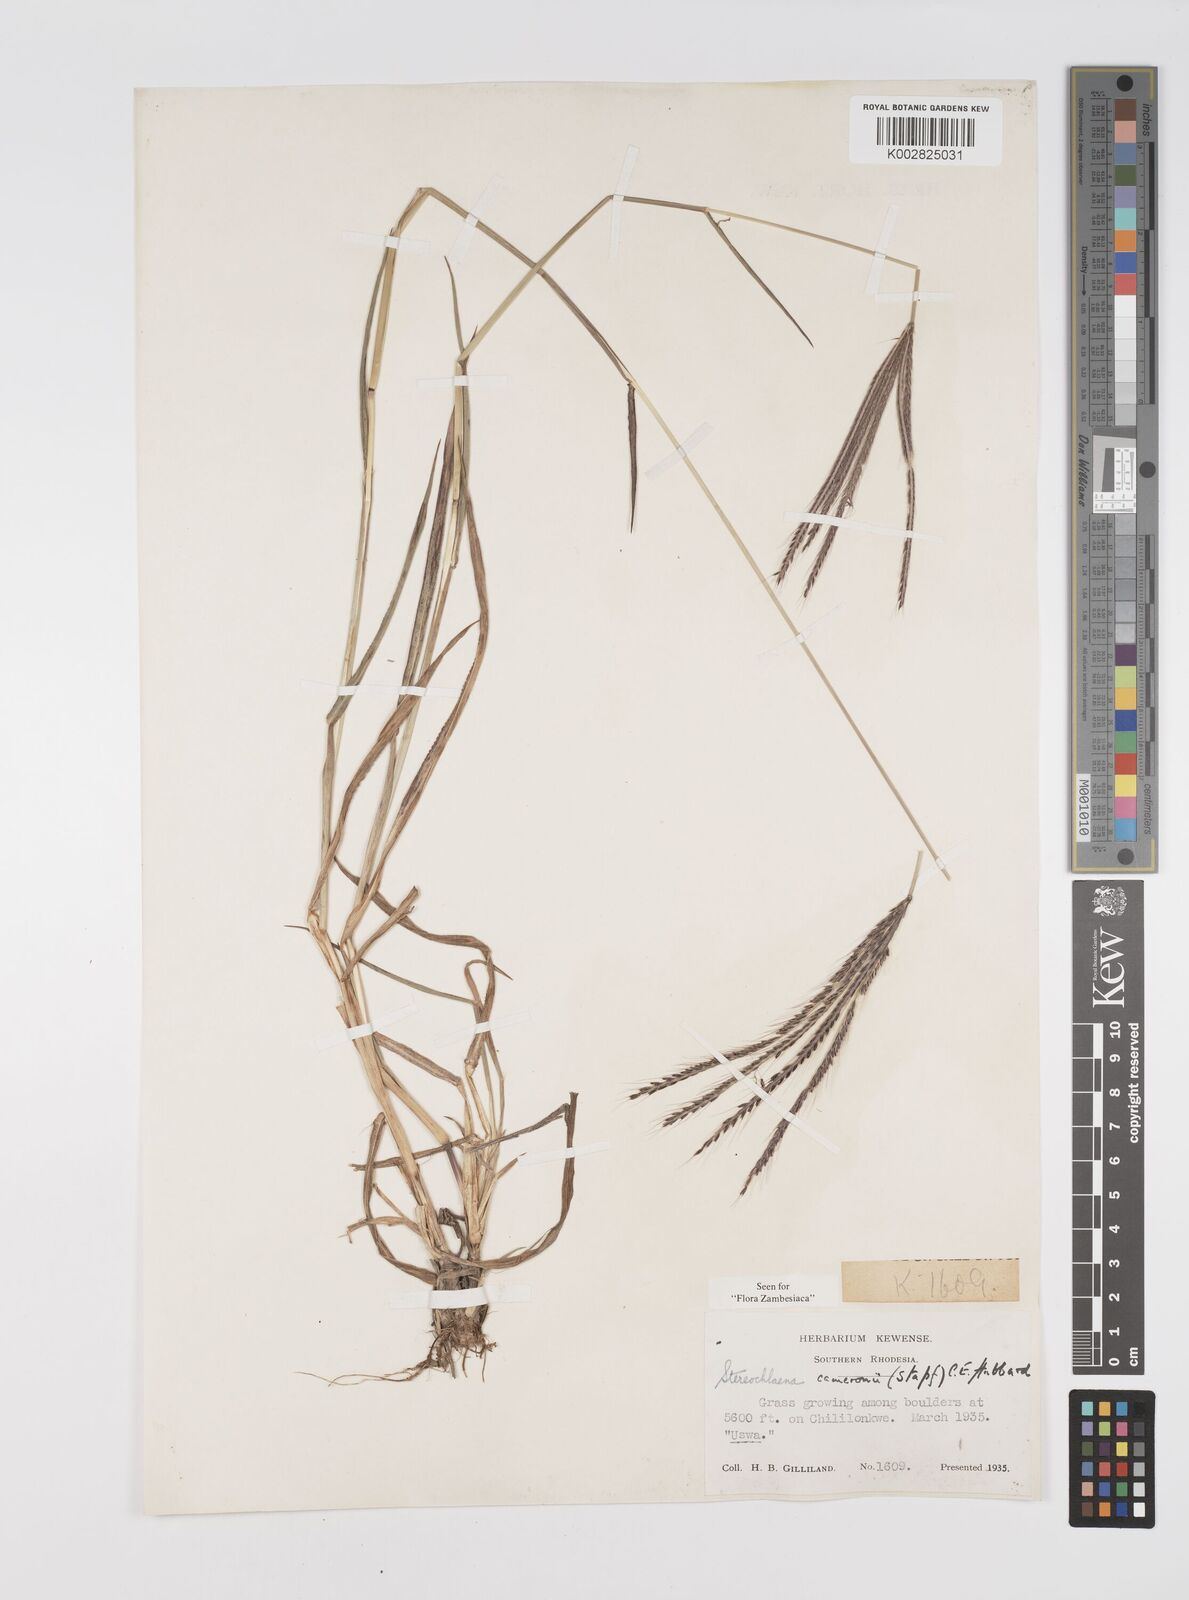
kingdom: Plantae
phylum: Tracheophyta
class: Liliopsida
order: Poales
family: Poaceae
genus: Stereochlaena
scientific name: Stereochlaena cameronii
